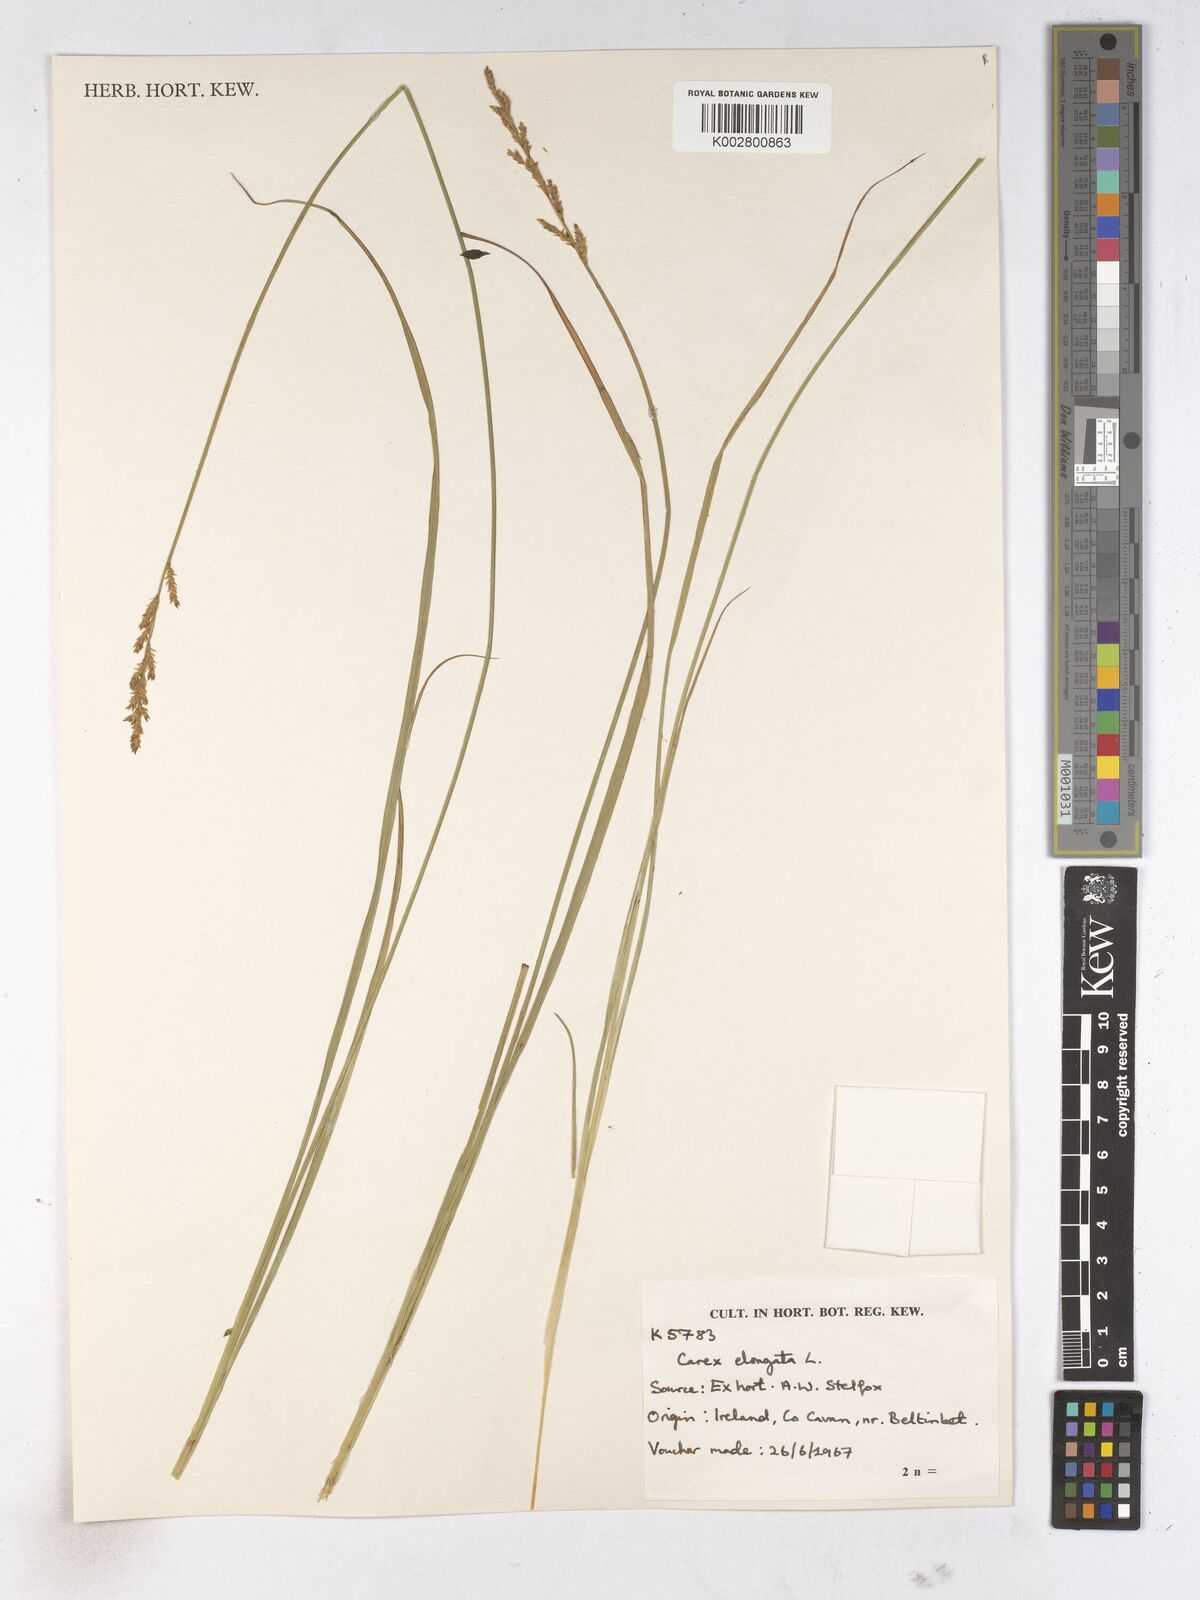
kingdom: Plantae
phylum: Tracheophyta
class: Liliopsida
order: Poales
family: Cyperaceae
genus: Carex
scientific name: Carex elata
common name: Tufted sedge
